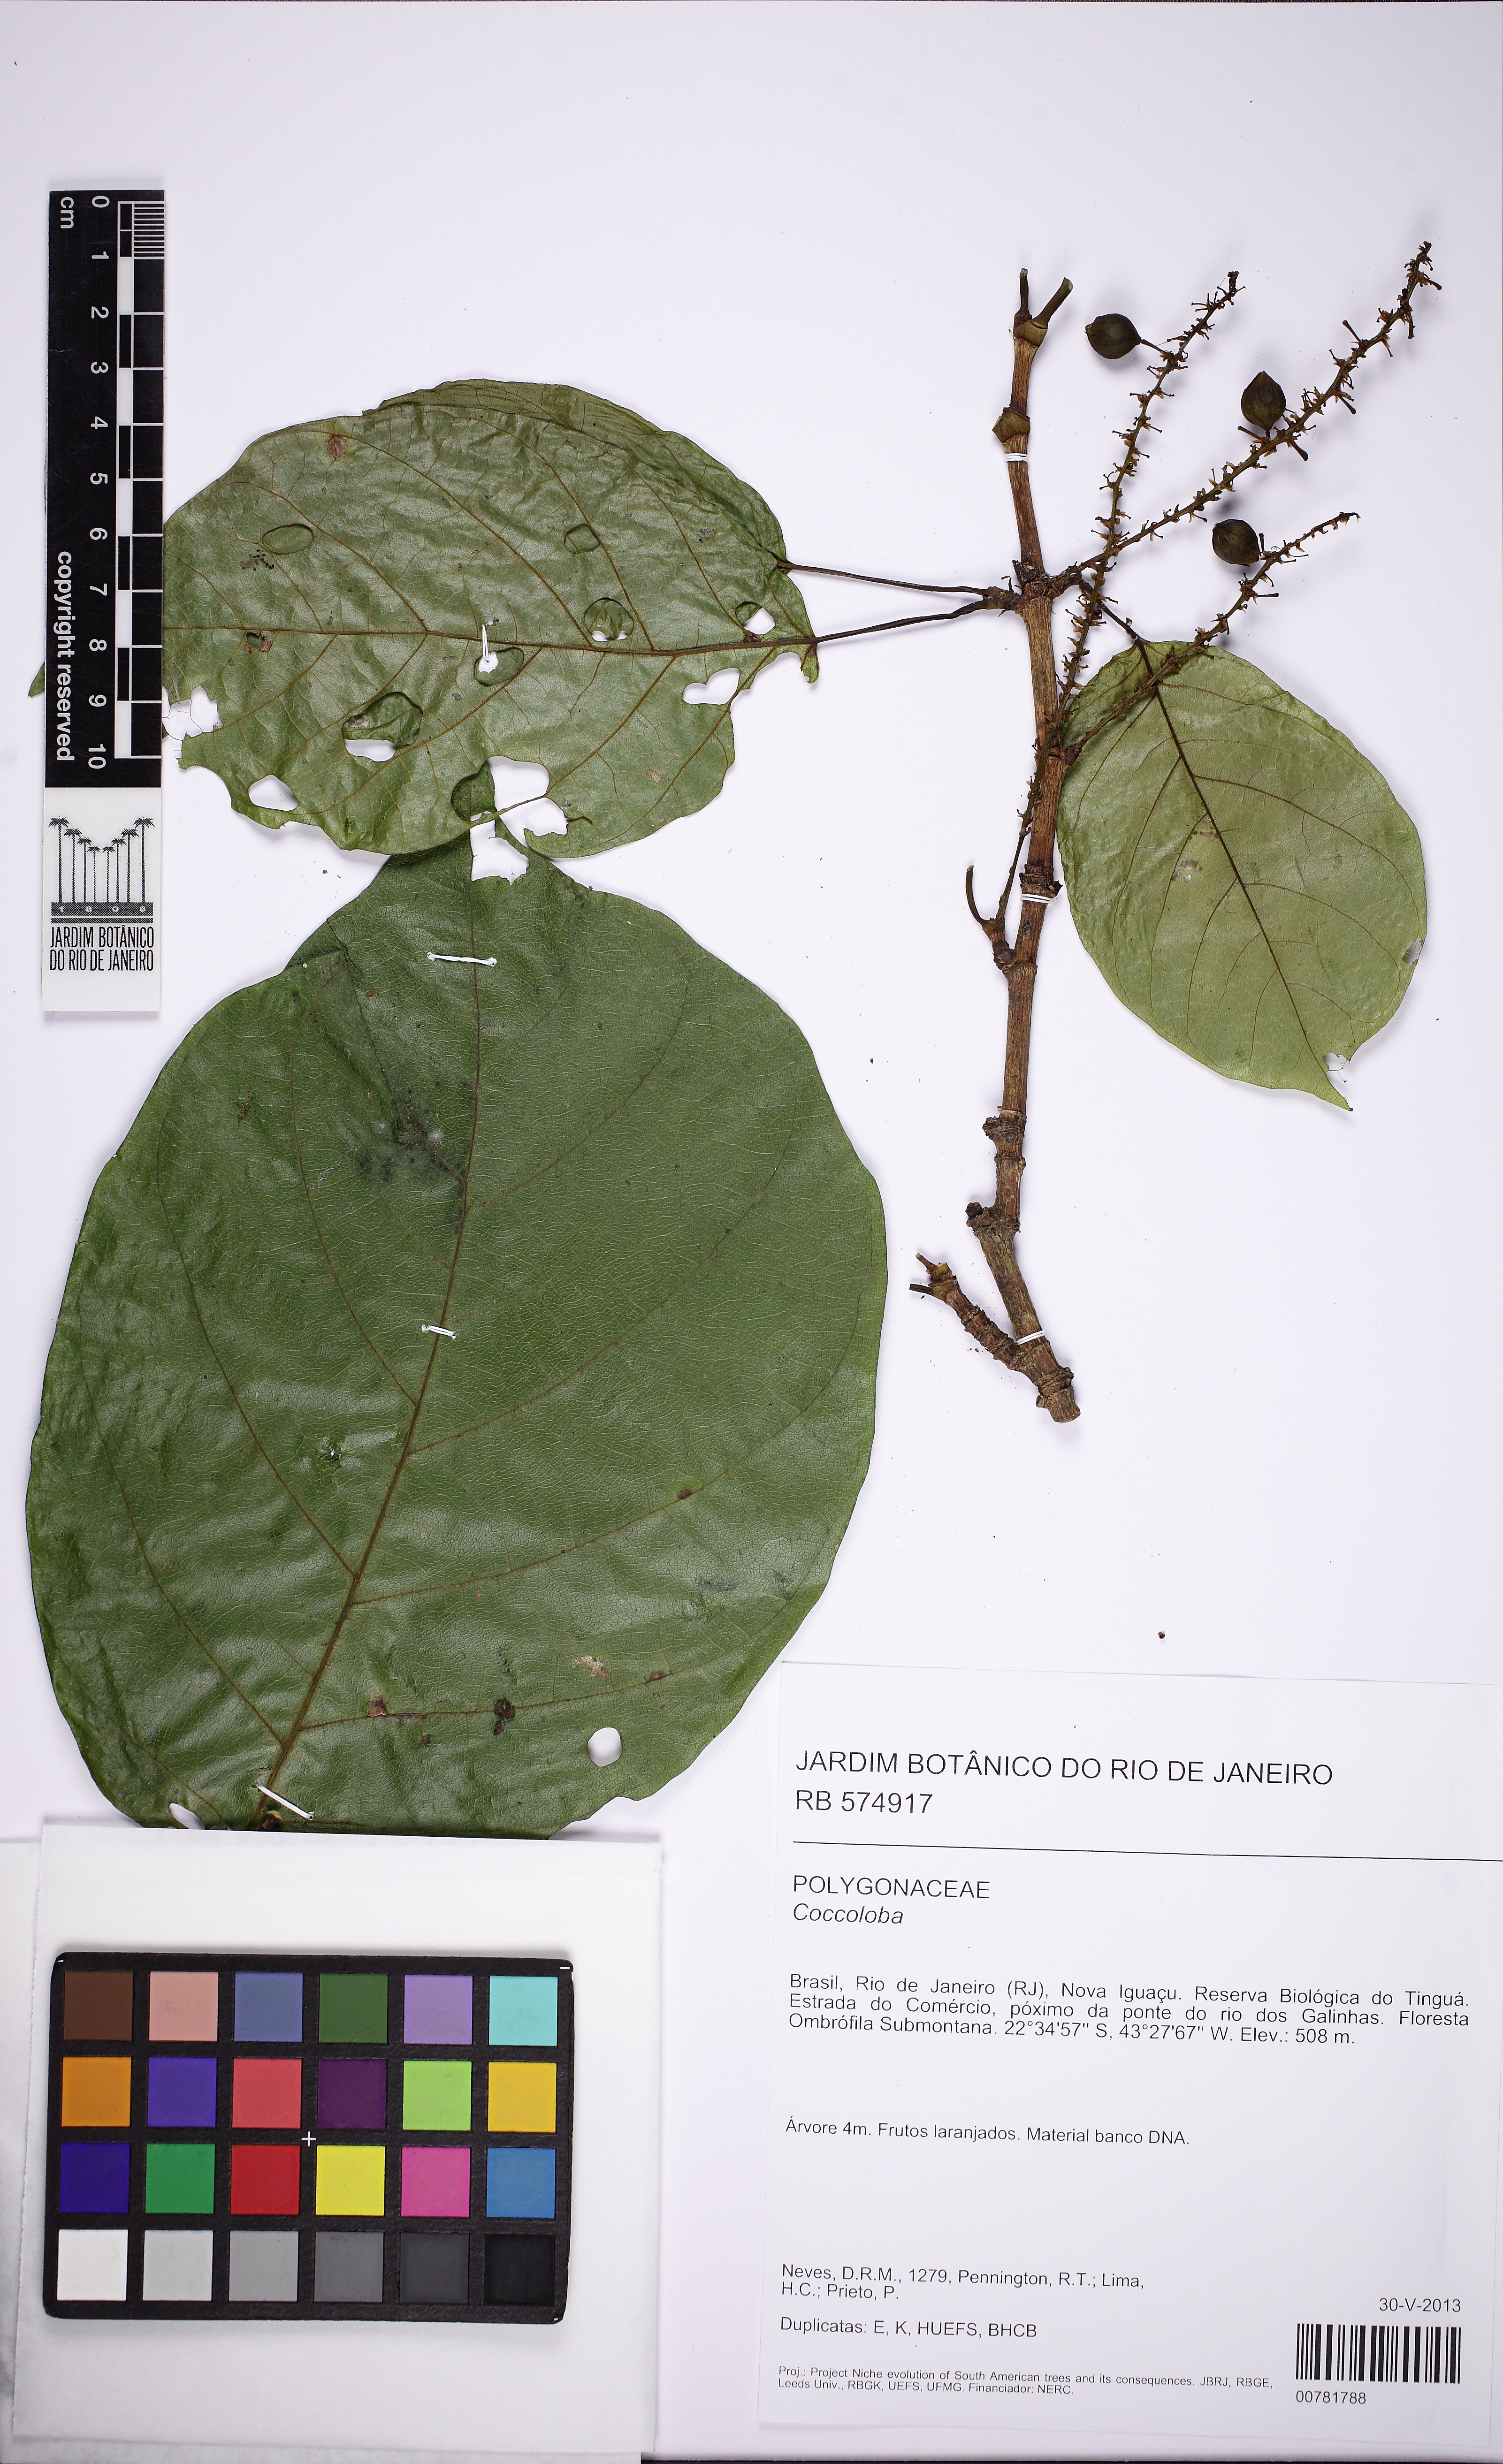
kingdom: Plantae
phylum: Tracheophyta
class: Magnoliopsida
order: Caryophyllales
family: Polygonaceae
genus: Coccoloba
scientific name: Coccoloba
